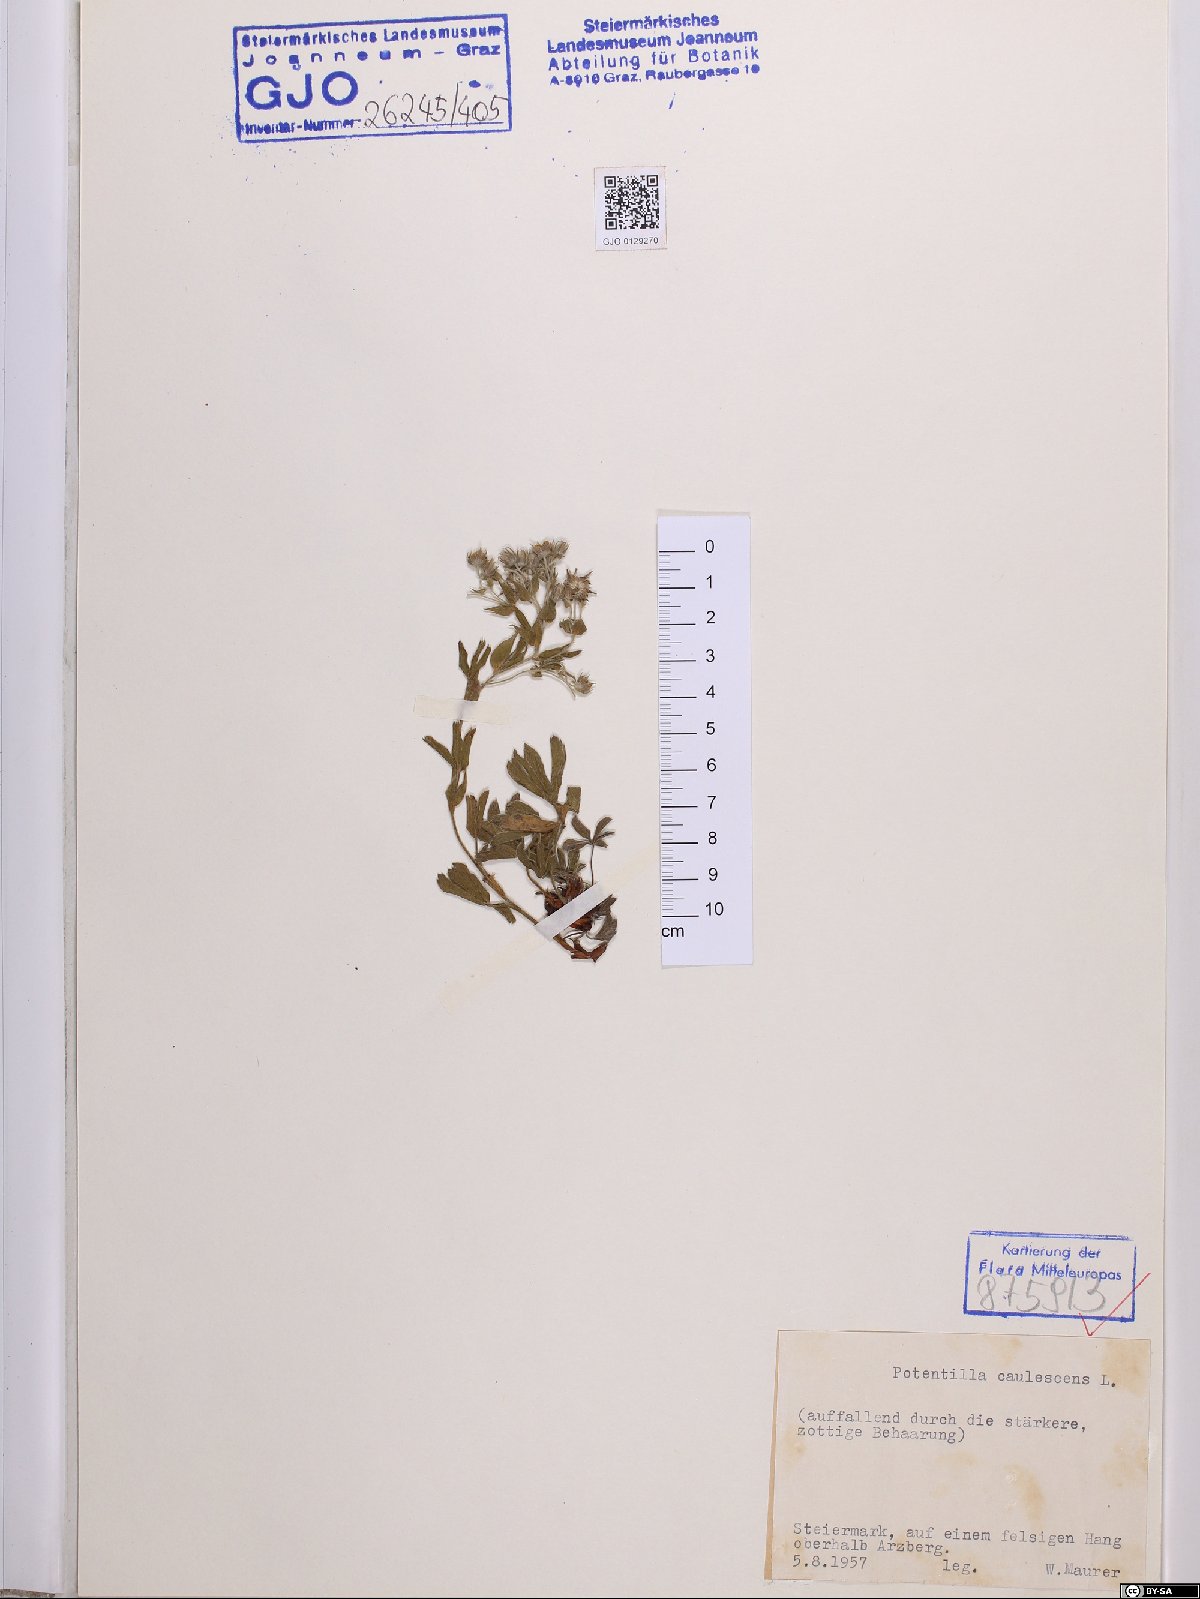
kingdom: Plantae
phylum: Tracheophyta
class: Magnoliopsida
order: Rosales
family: Rosaceae
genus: Potentilla
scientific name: Potentilla caulescens
